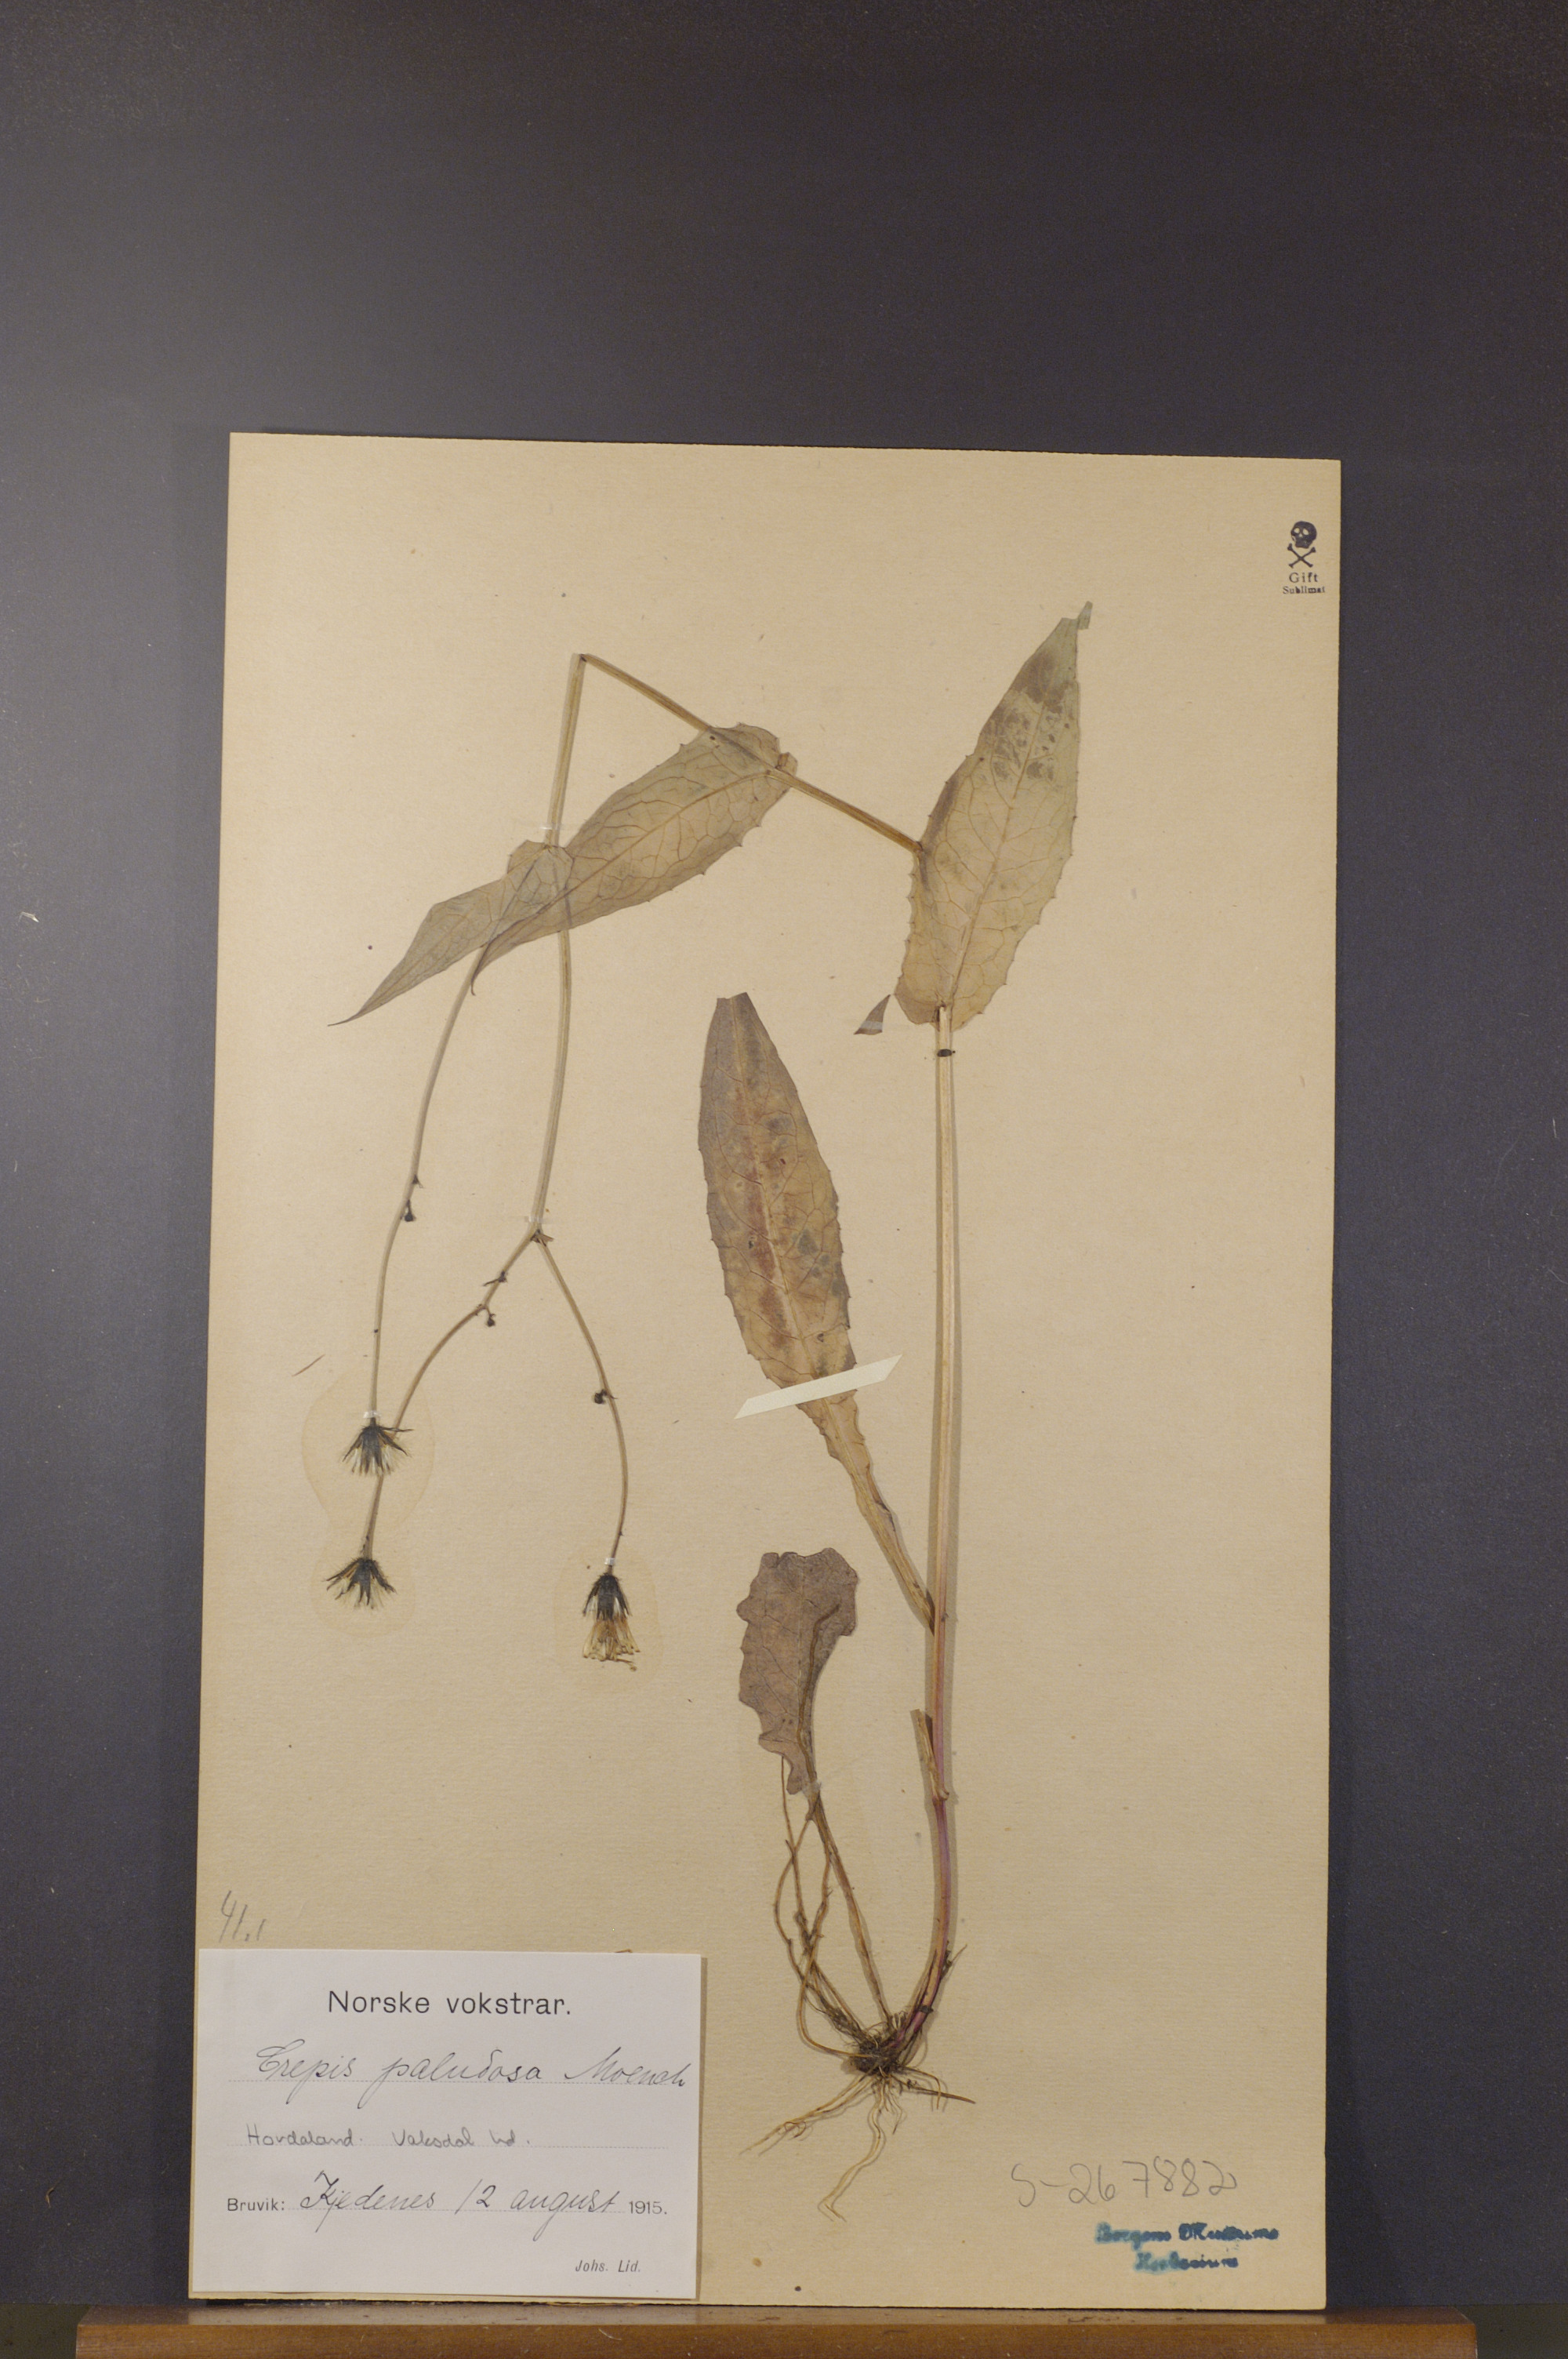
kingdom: Plantae
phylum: Tracheophyta
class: Magnoliopsida
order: Asterales
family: Asteraceae
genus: Crepis
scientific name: Crepis paludosa
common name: Marsh hawk's-beard
